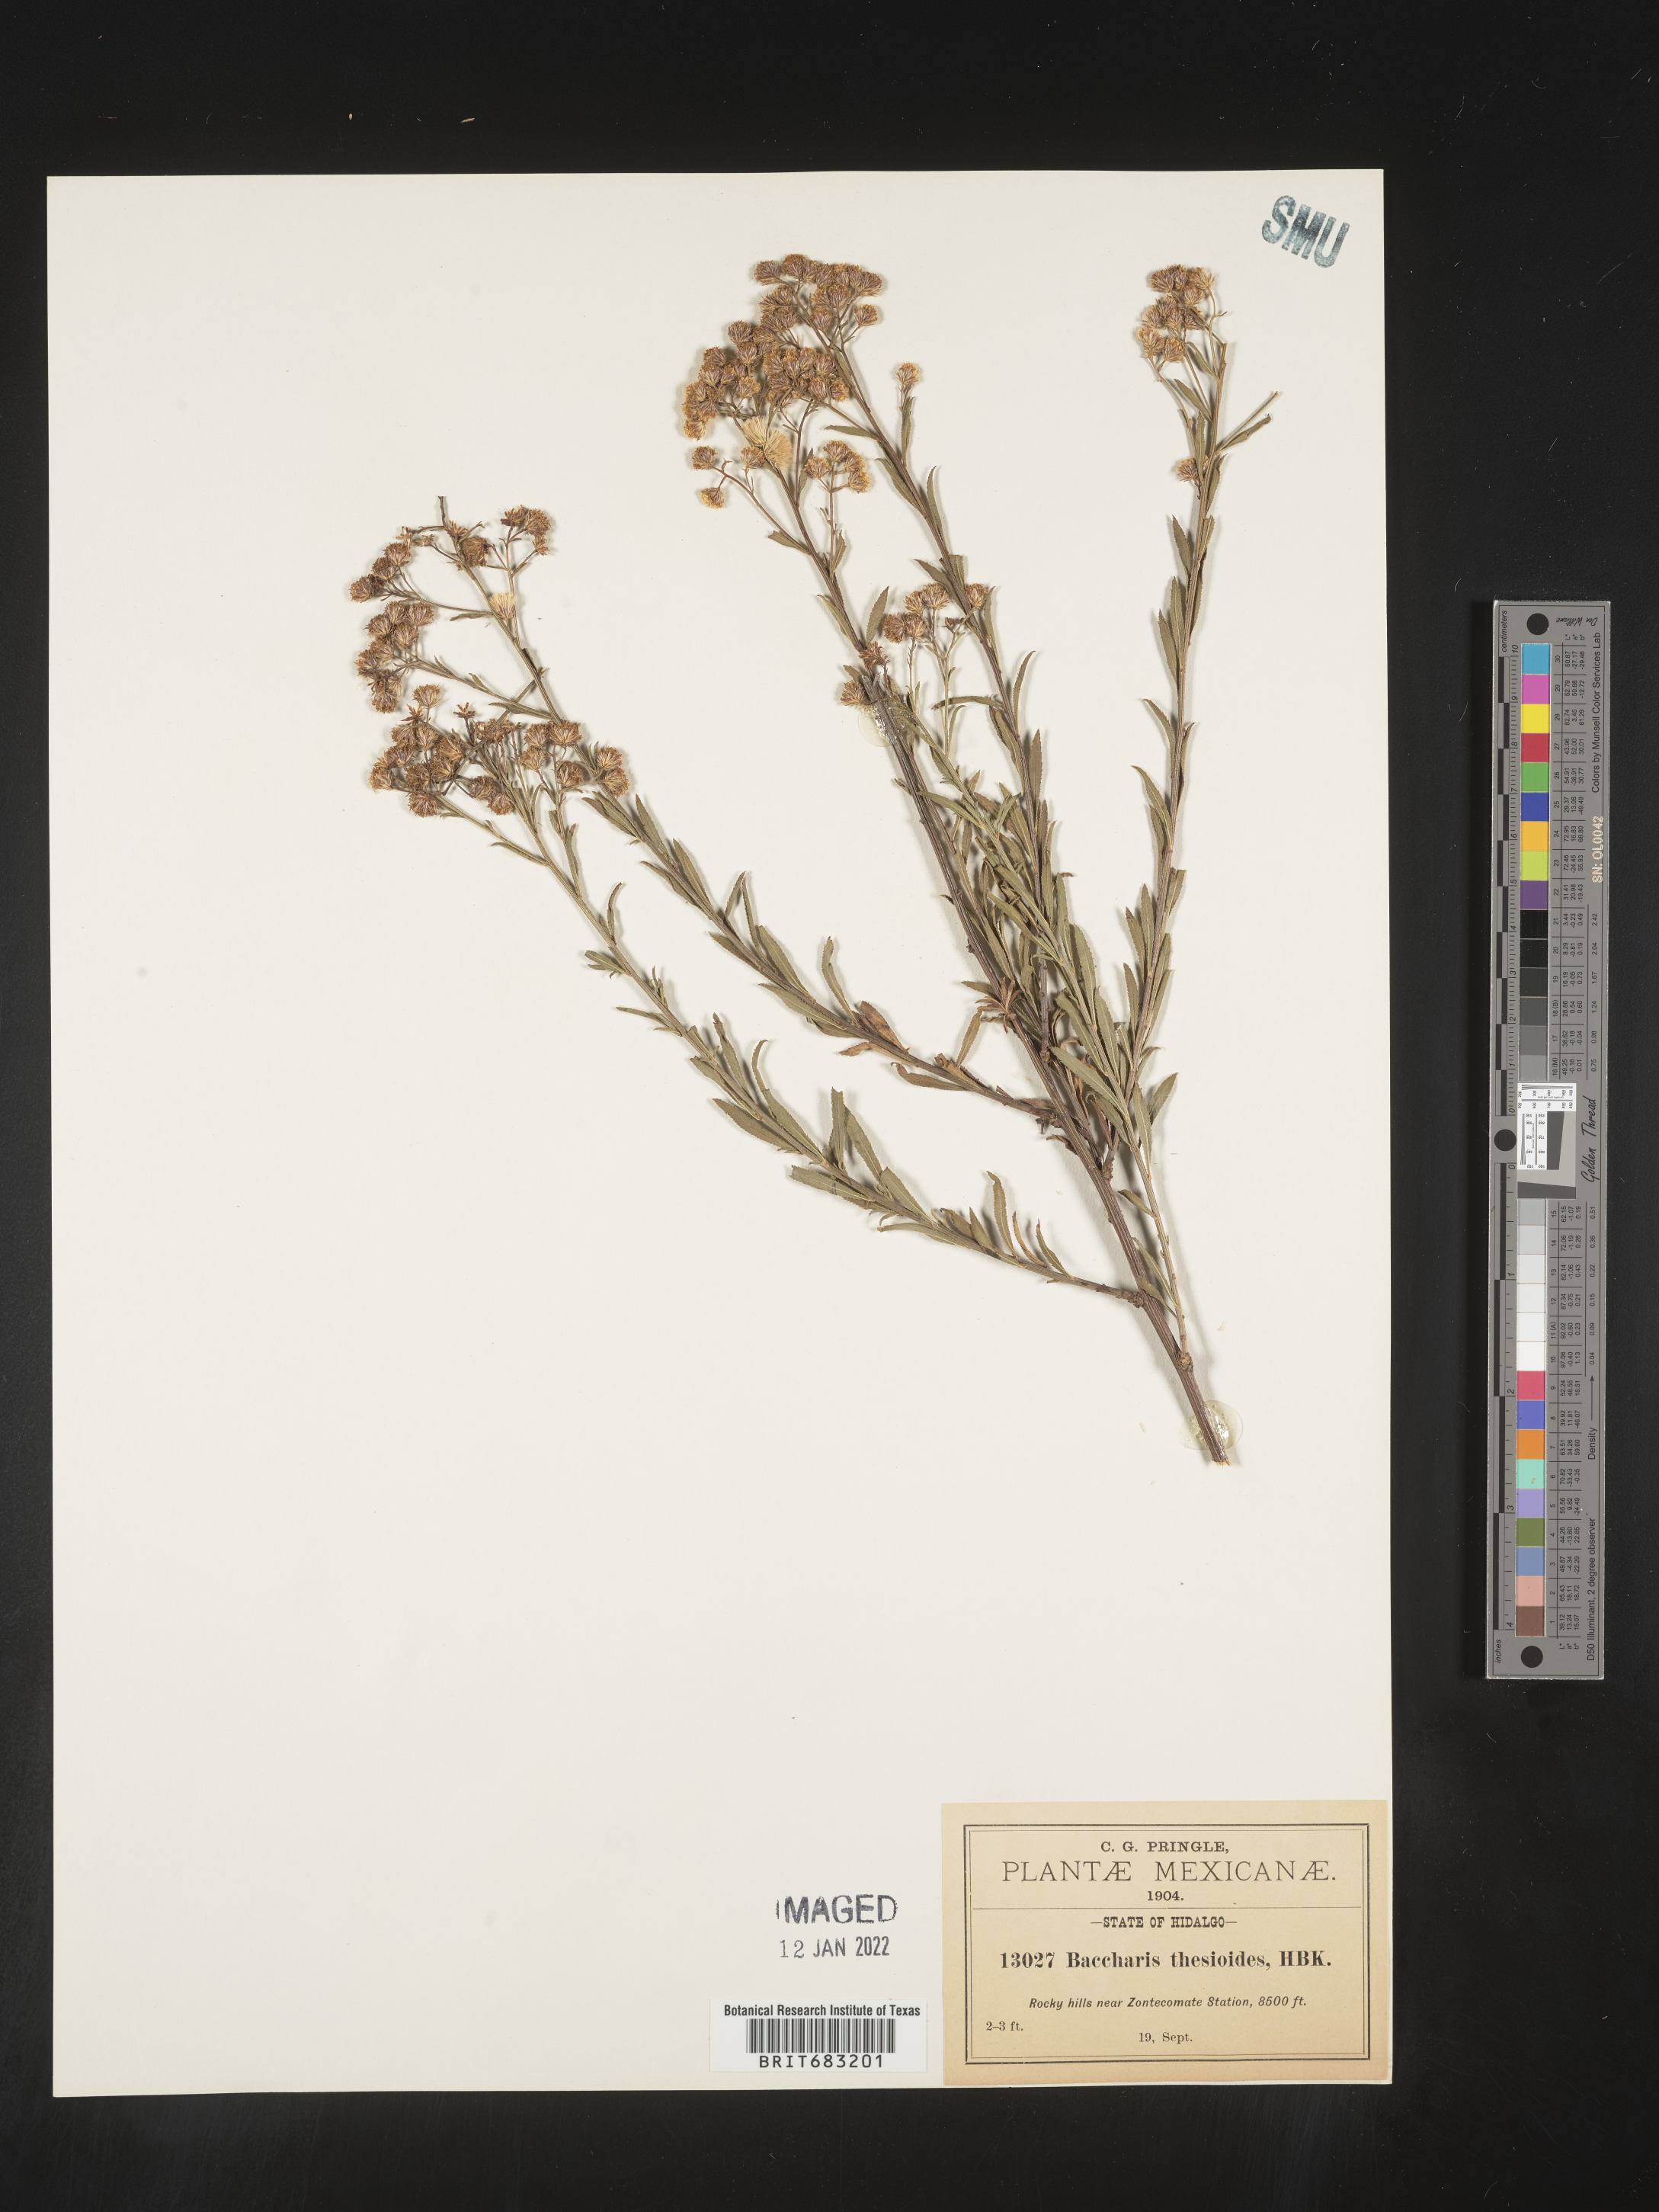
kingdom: Plantae
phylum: Tracheophyta
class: Magnoliopsida
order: Asterales
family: Asteraceae
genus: Baccharis
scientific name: Baccharis thesioides
